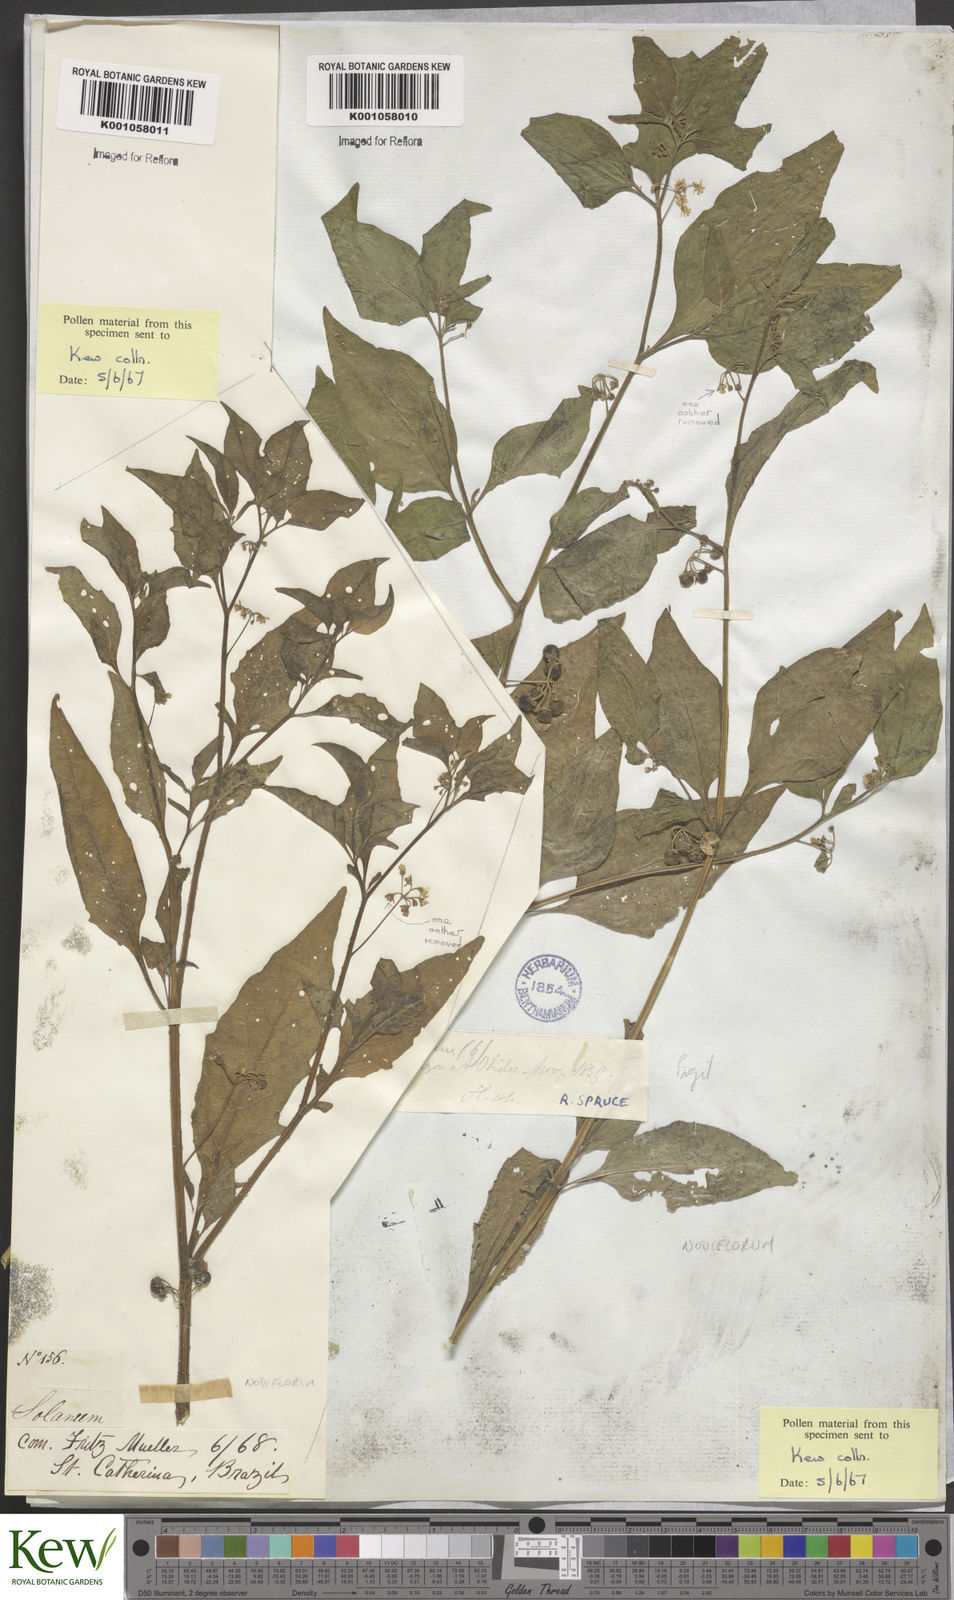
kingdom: Plantae
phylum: Tracheophyta
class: Magnoliopsida
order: Solanales
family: Solanaceae
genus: Solanum
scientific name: Solanum americanum
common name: American black nightshade
